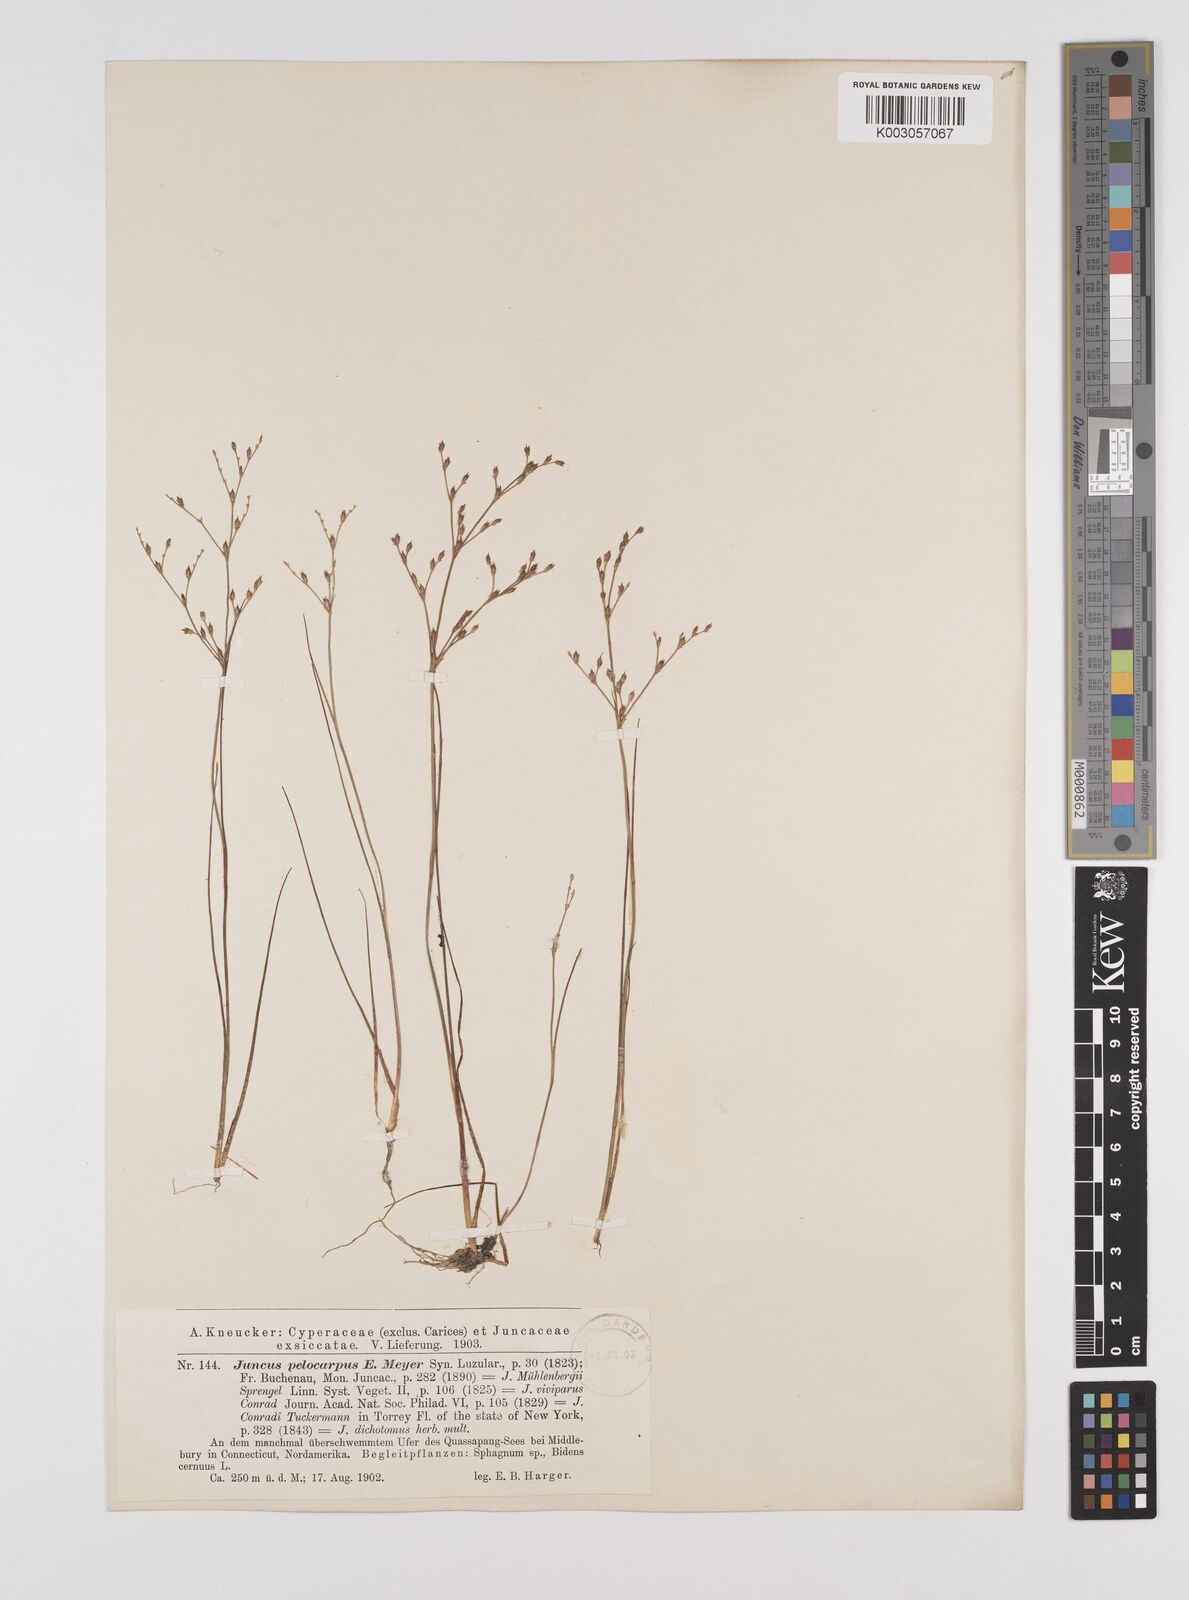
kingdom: Plantae
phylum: Tracheophyta
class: Liliopsida
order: Poales
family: Juncaceae
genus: Juncus
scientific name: Juncus pelocarpus
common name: Brown-fruited rush
